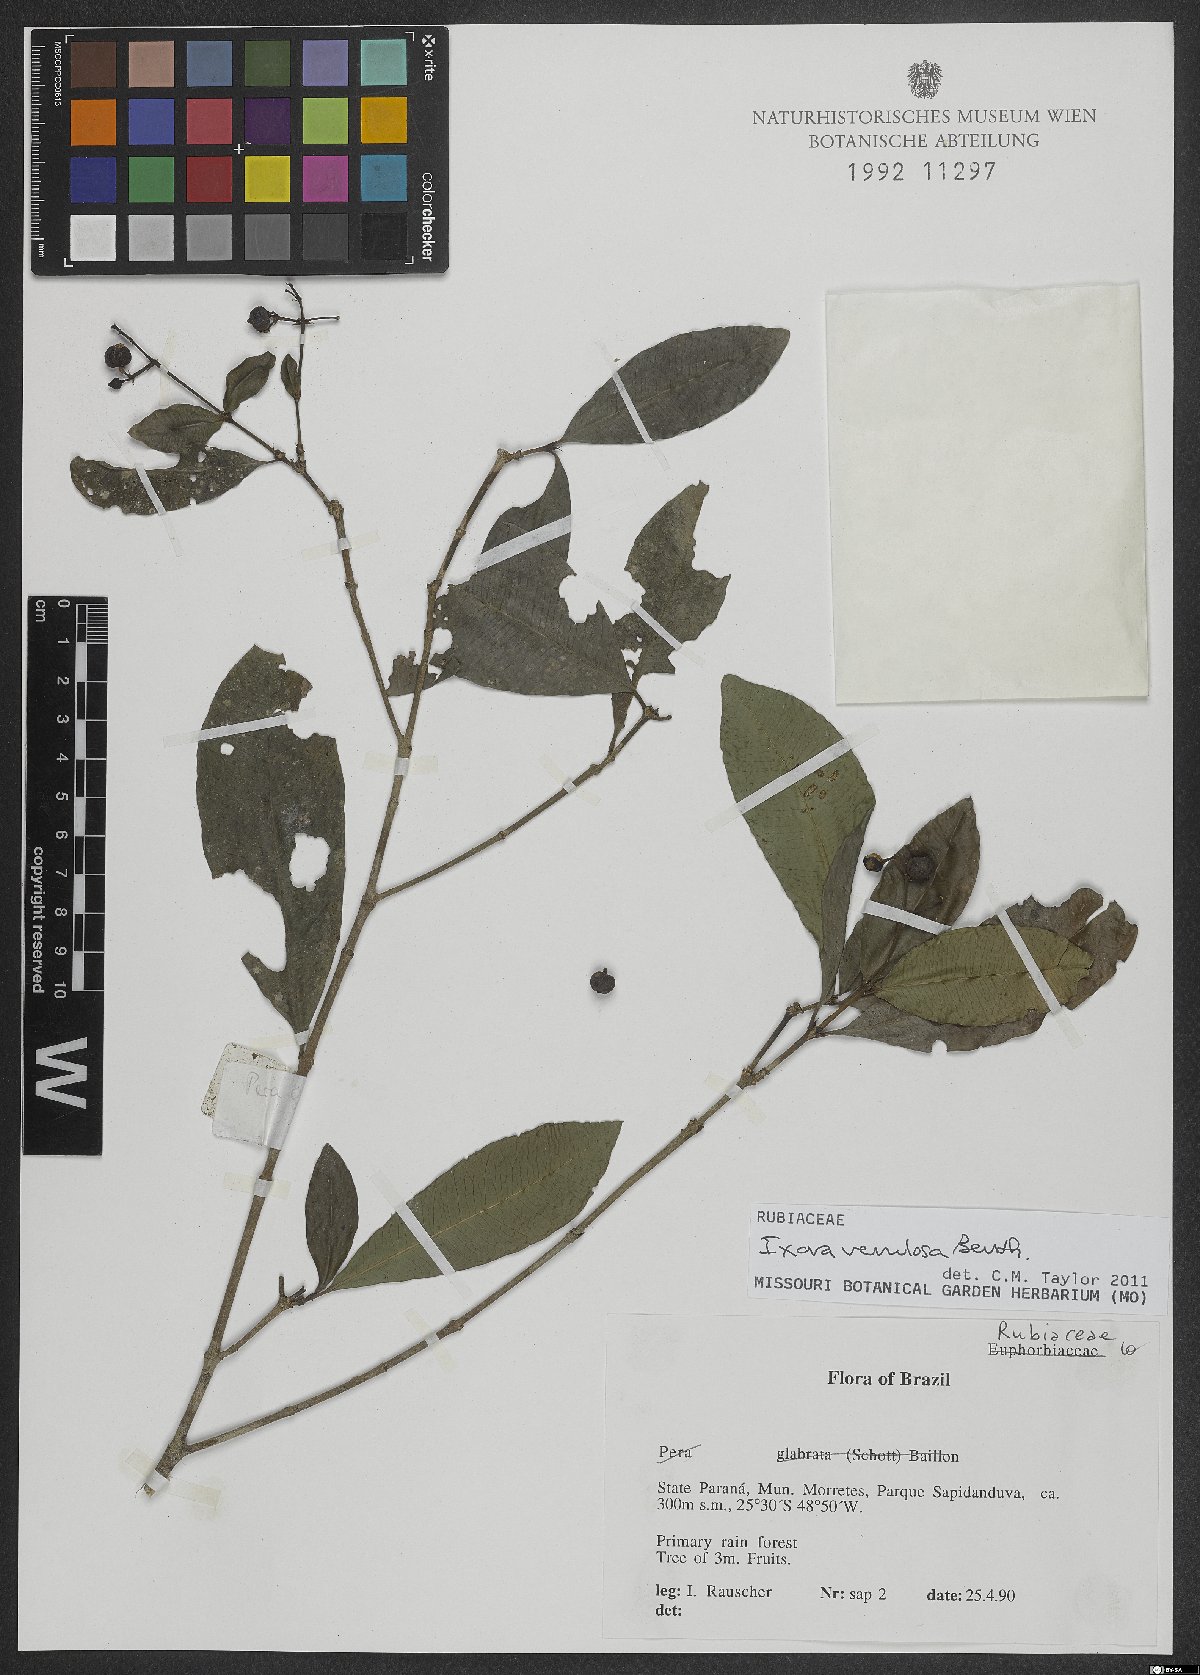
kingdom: Plantae
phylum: Tracheophyta
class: Magnoliopsida
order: Gentianales
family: Rubiaceae
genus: Ixora
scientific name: Ixora venulosa
